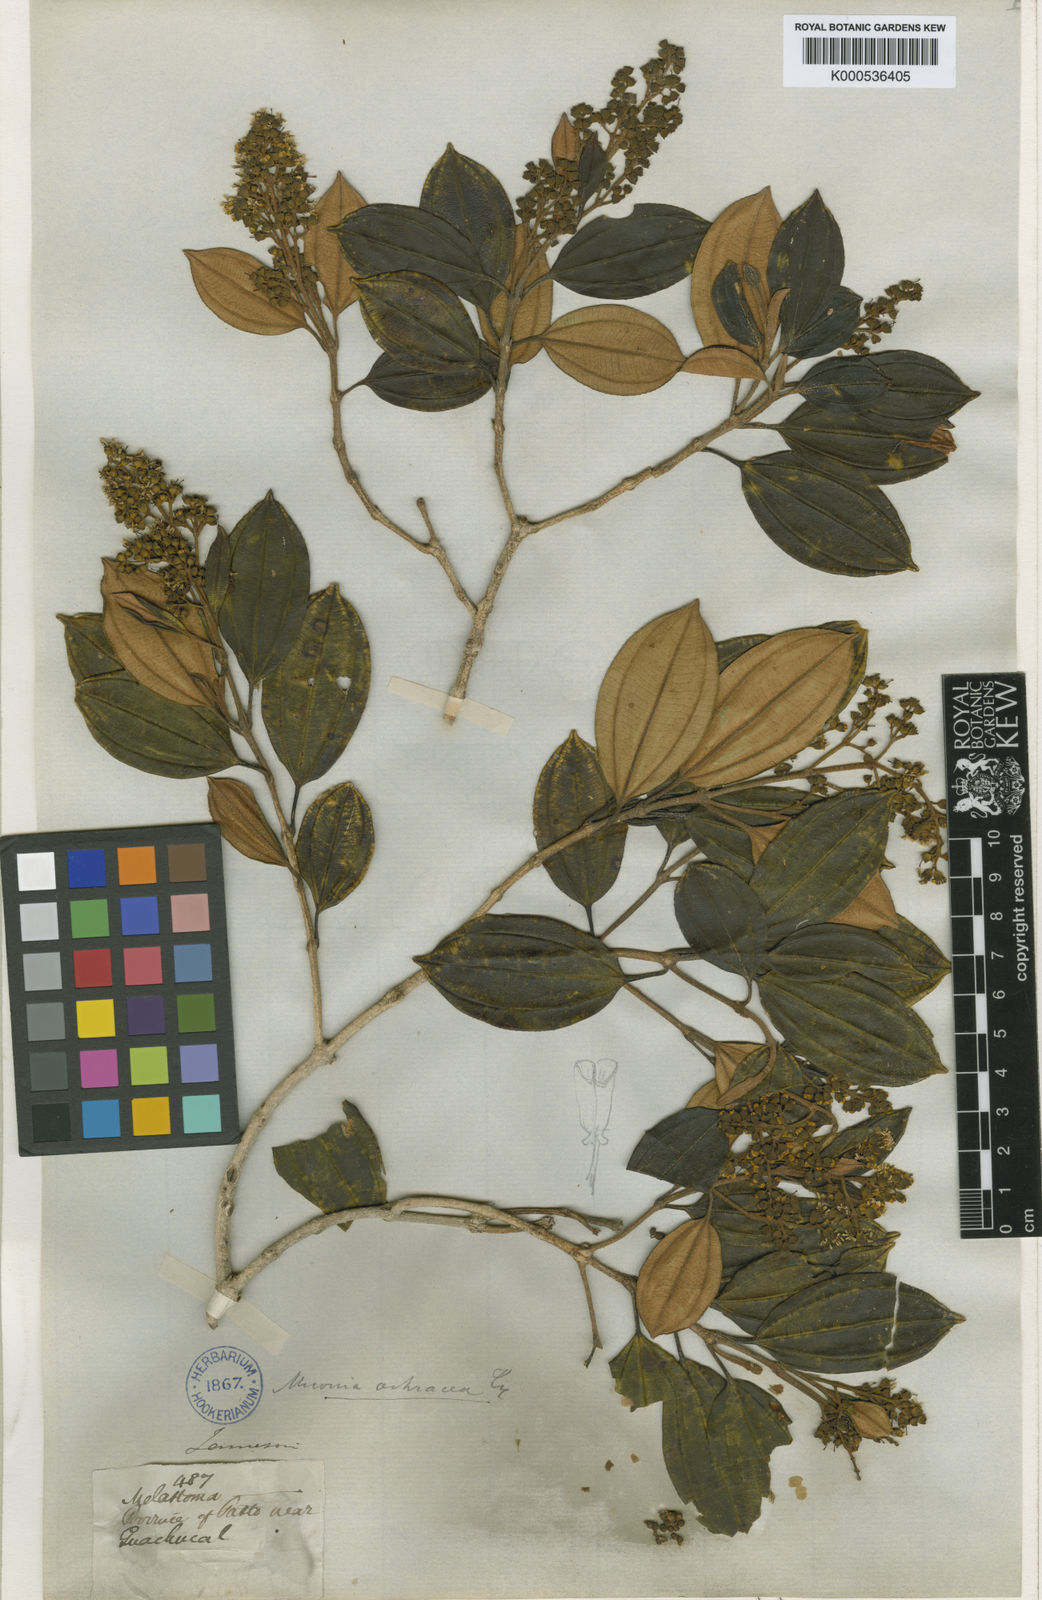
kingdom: Plantae
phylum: Tracheophyta
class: Magnoliopsida
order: Myrtales
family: Melastomataceae
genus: Miconia
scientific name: Miconia ochracea
